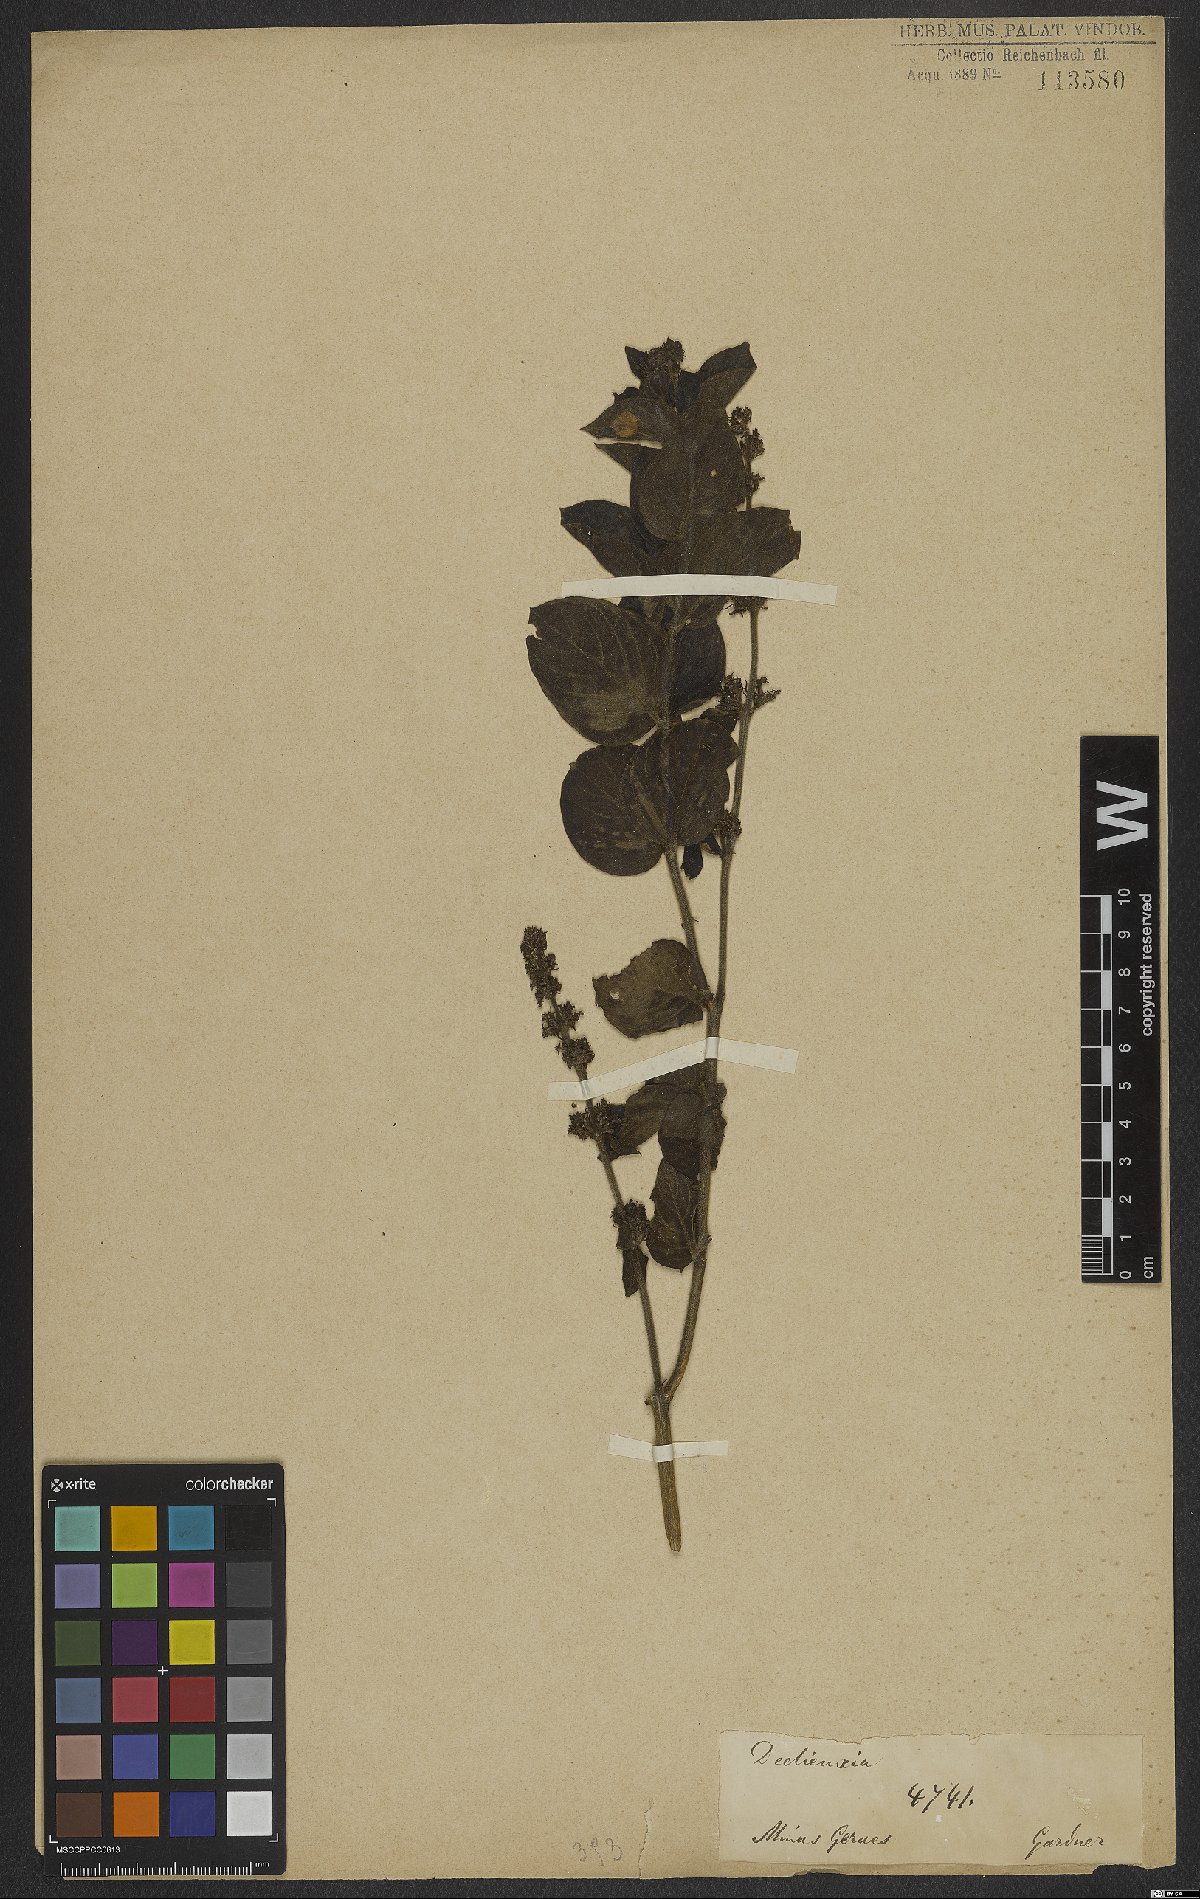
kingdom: Plantae
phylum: Tracheophyta
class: Magnoliopsida
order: Gentianales
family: Rubiaceae
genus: Declieuxia
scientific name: Declieuxia
